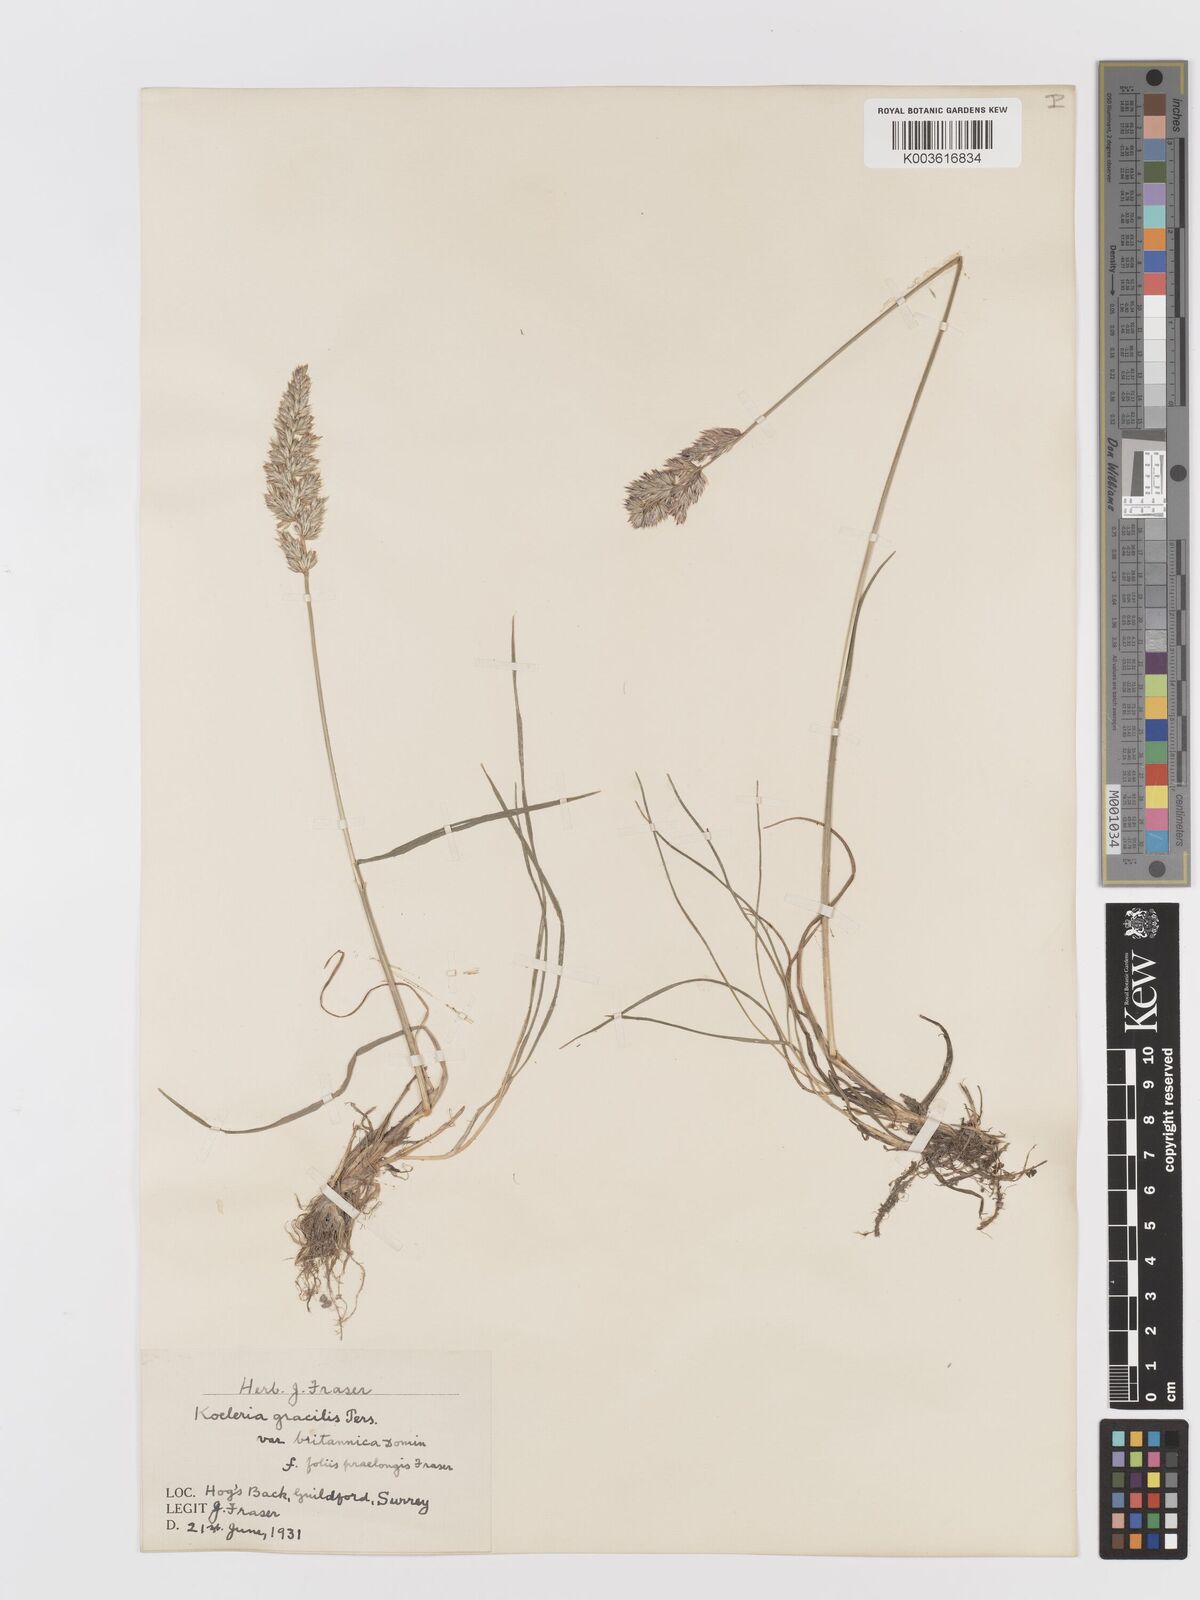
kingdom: Plantae
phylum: Tracheophyta
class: Liliopsida
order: Poales
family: Poaceae
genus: Koeleria
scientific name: Koeleria macrantha
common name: Crested hair-grass
